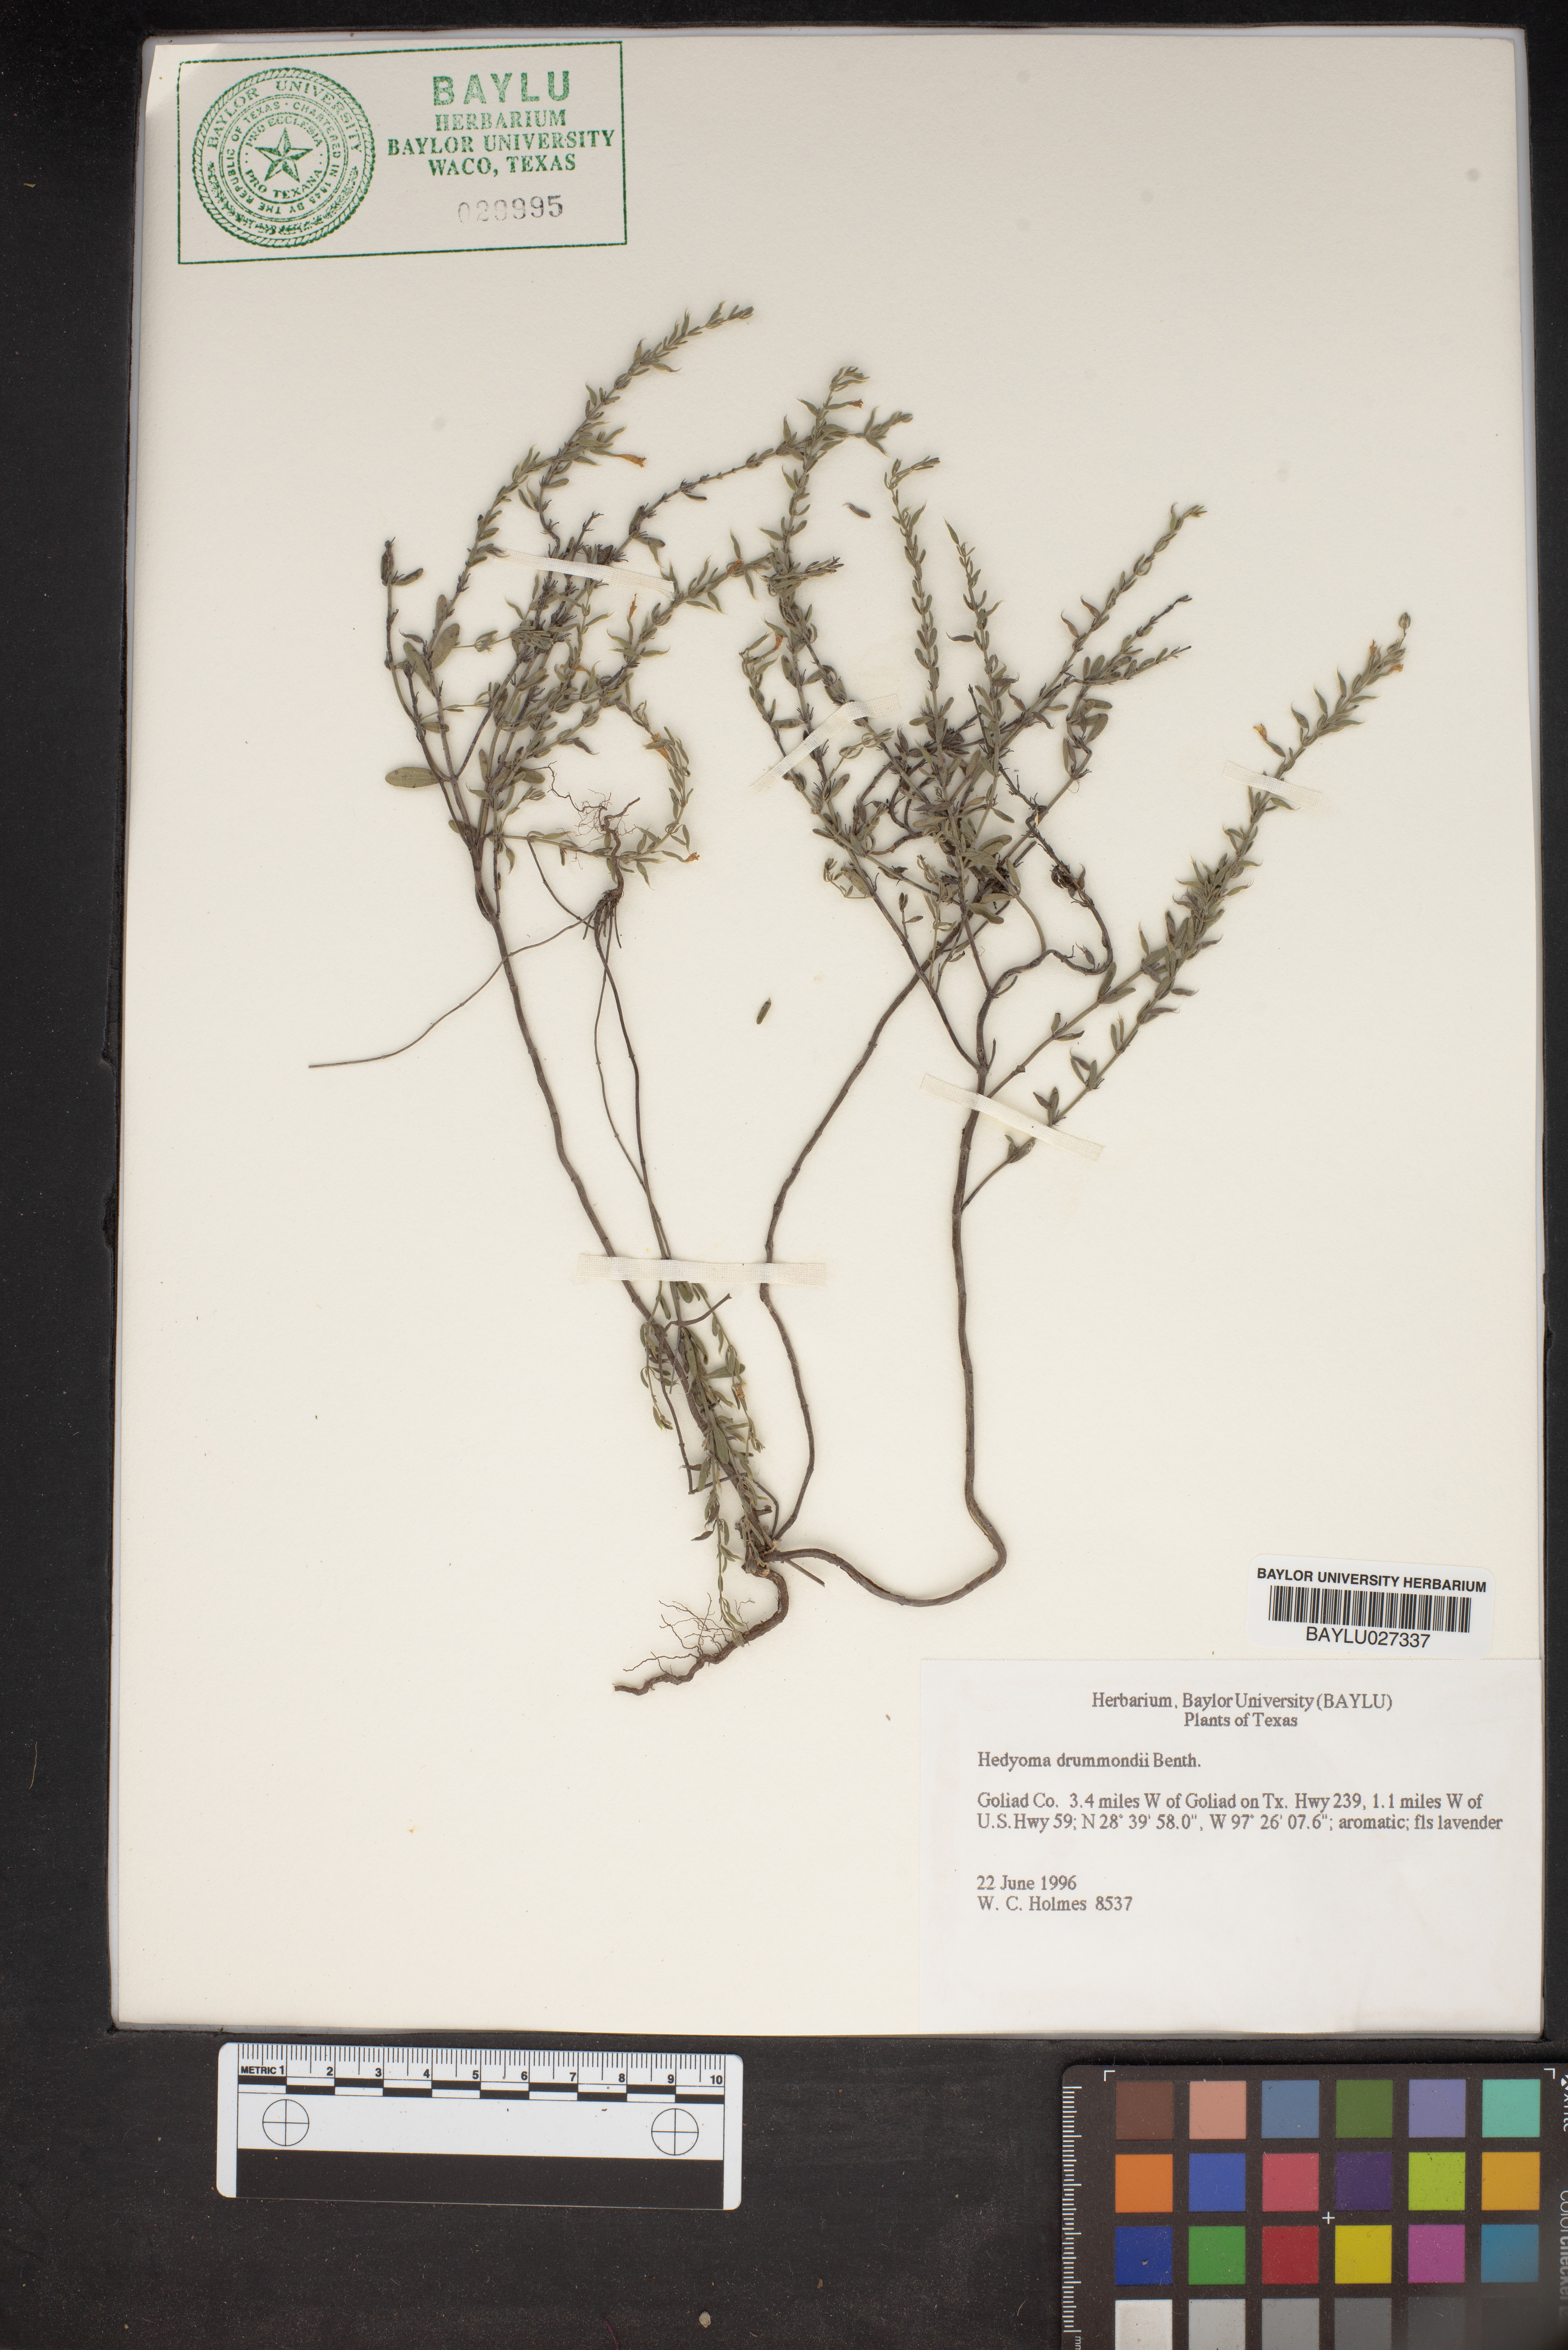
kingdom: Plantae
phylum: Tracheophyta
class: Magnoliopsida
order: Lamiales
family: Lamiaceae
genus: Hedeoma
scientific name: Hedeoma drummondii
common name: New mexico pennyroyal
